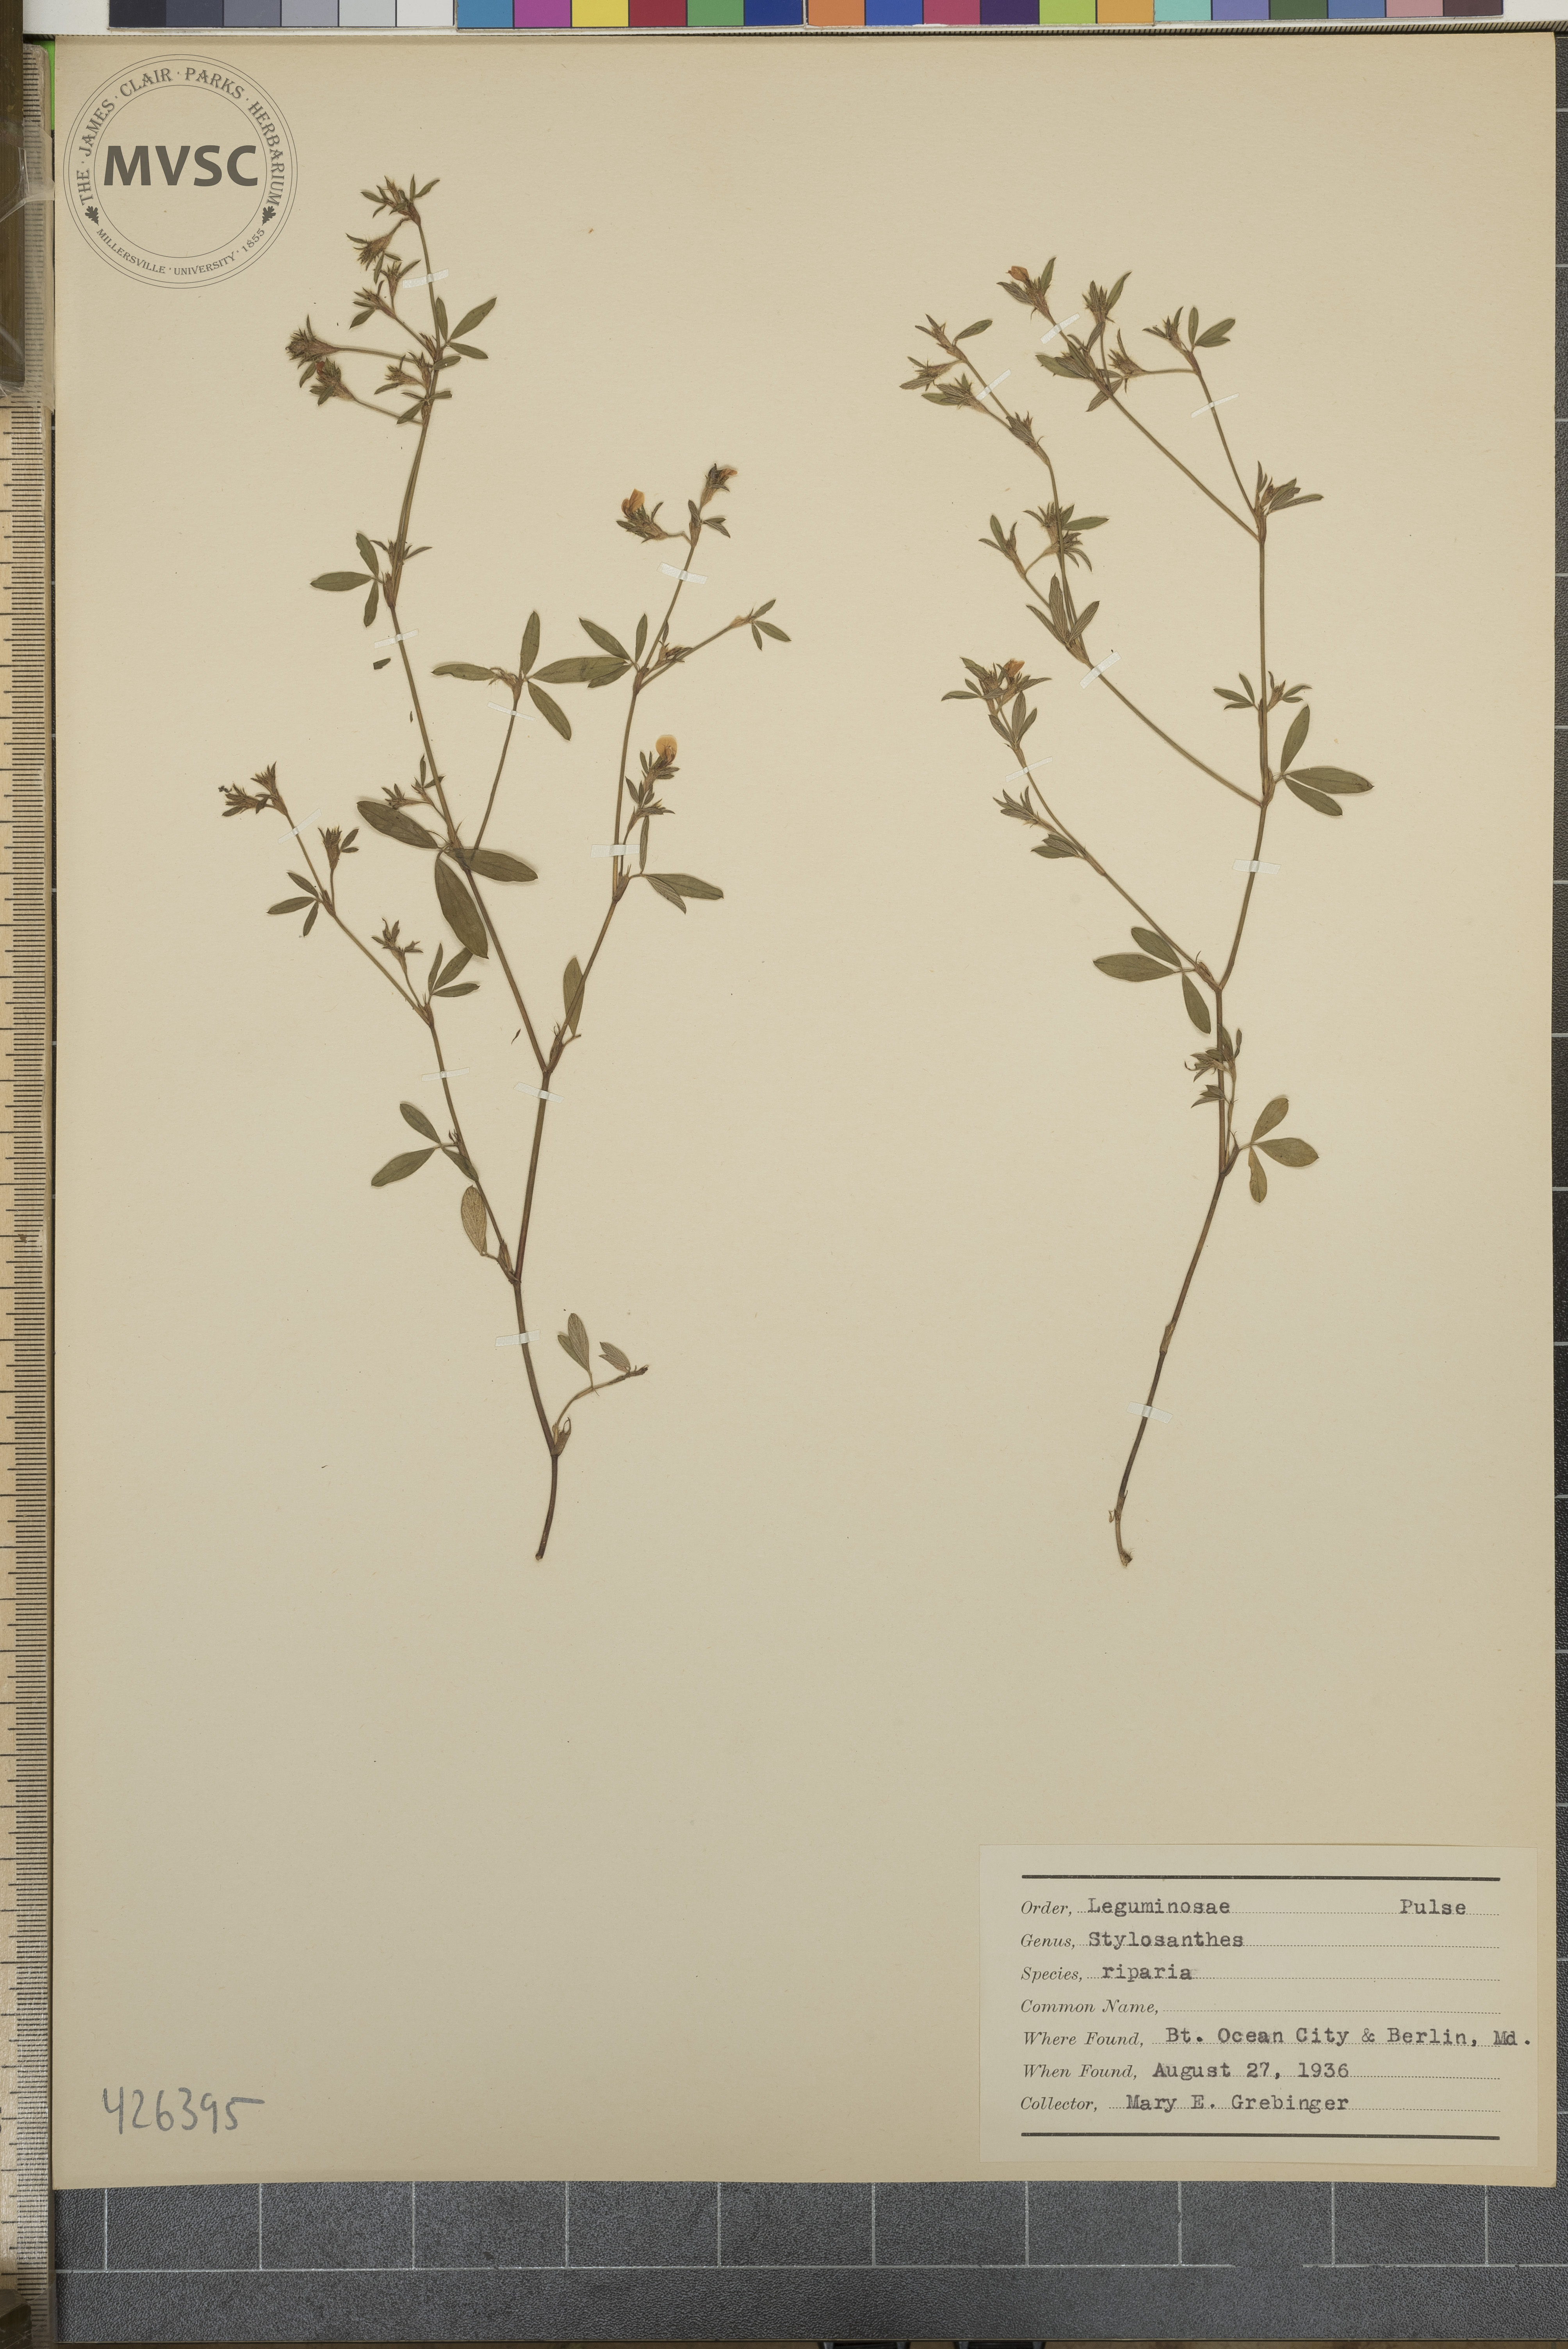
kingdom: Plantae
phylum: Tracheophyta
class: Magnoliopsida
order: Fabales
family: Fabaceae
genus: Stylosanthes
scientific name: Stylosanthes biflora
